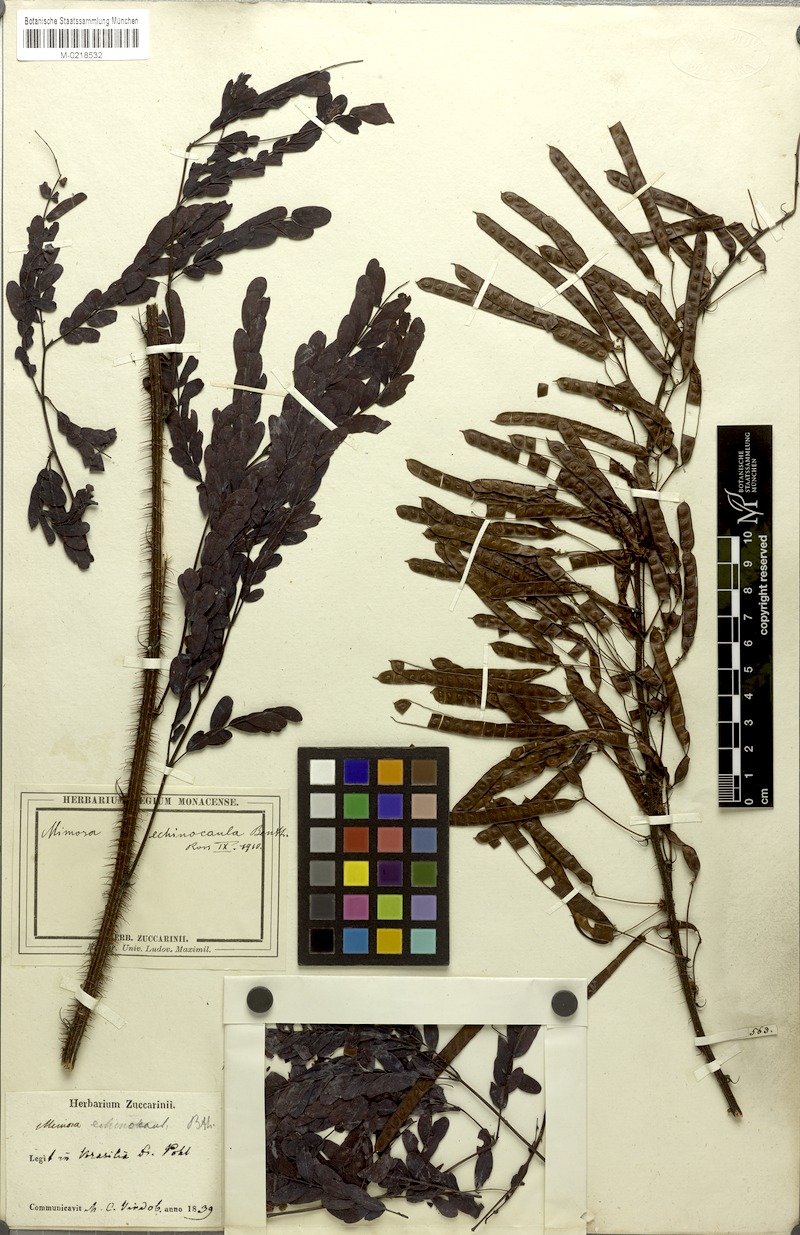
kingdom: Plantae
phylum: Tracheophyta
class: Magnoliopsida
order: Fabales
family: Fabaceae
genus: Mimosa
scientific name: Mimosa echinocaula
